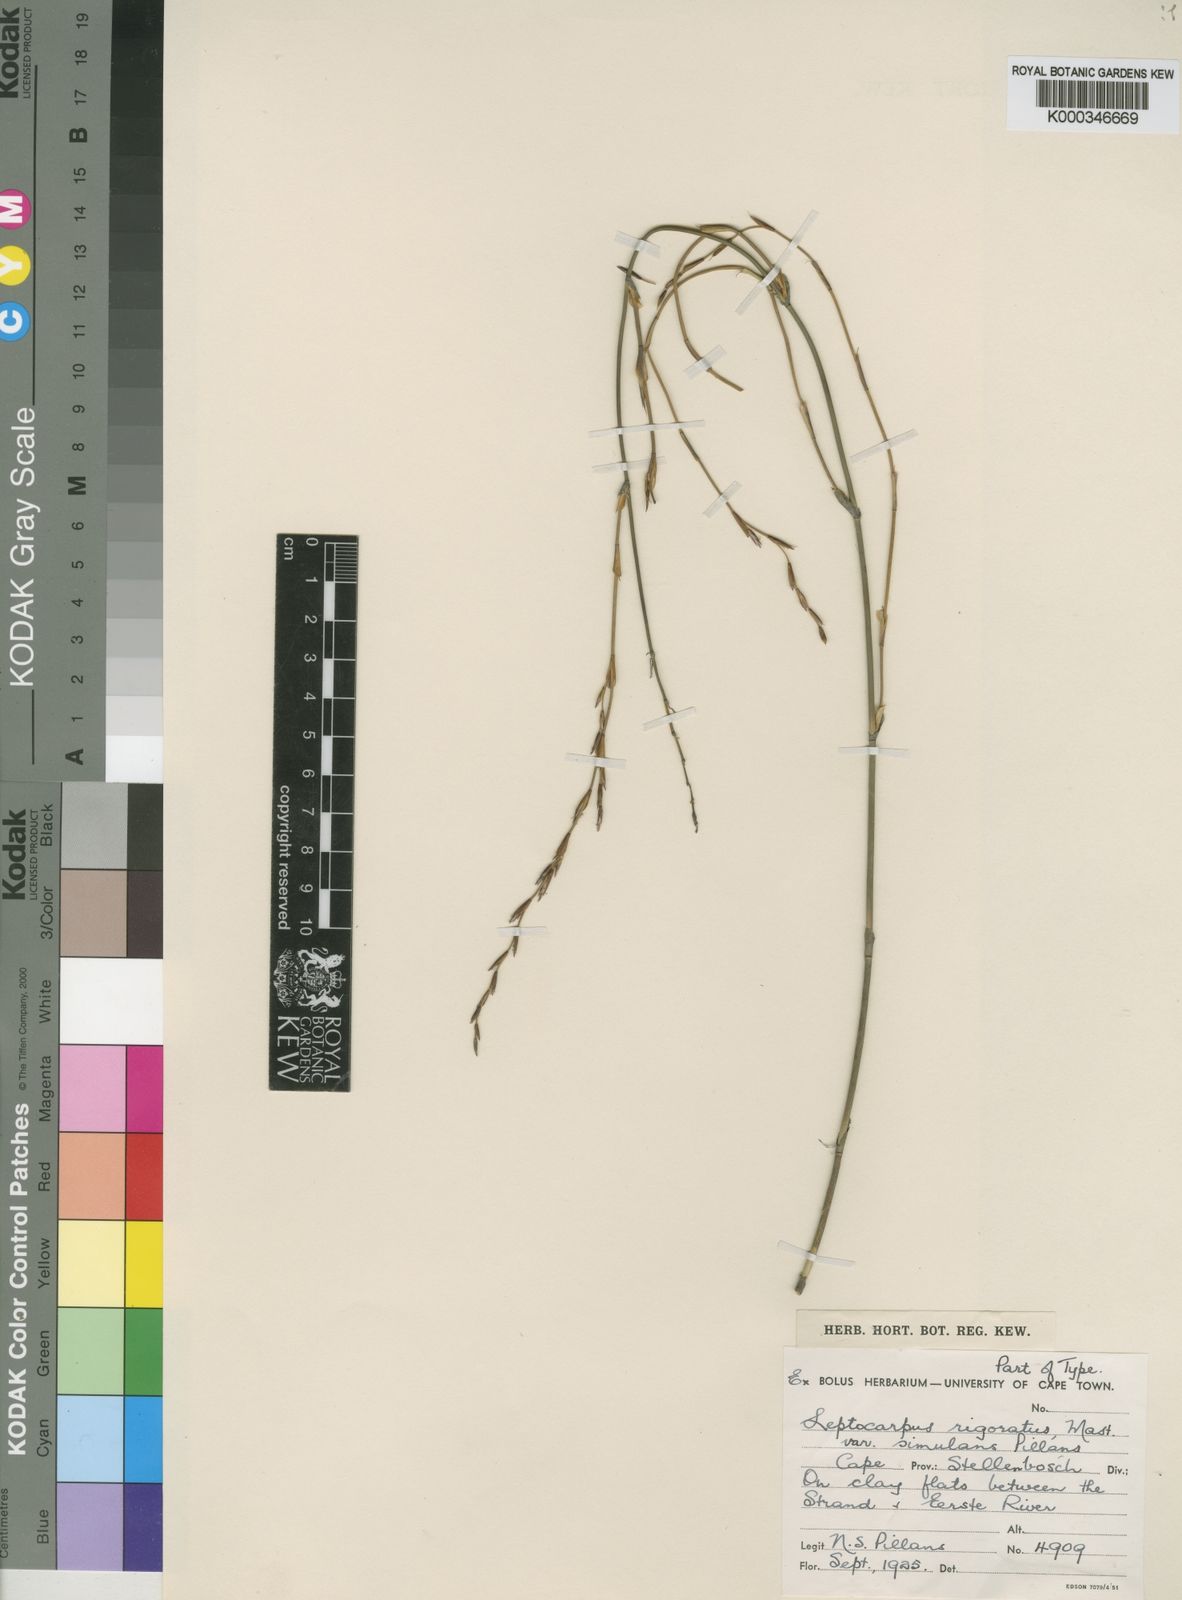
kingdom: Plantae
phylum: Tracheophyta
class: Liliopsida
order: Poales
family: Restionaceae
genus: Restio
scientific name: Restio rigoratus
